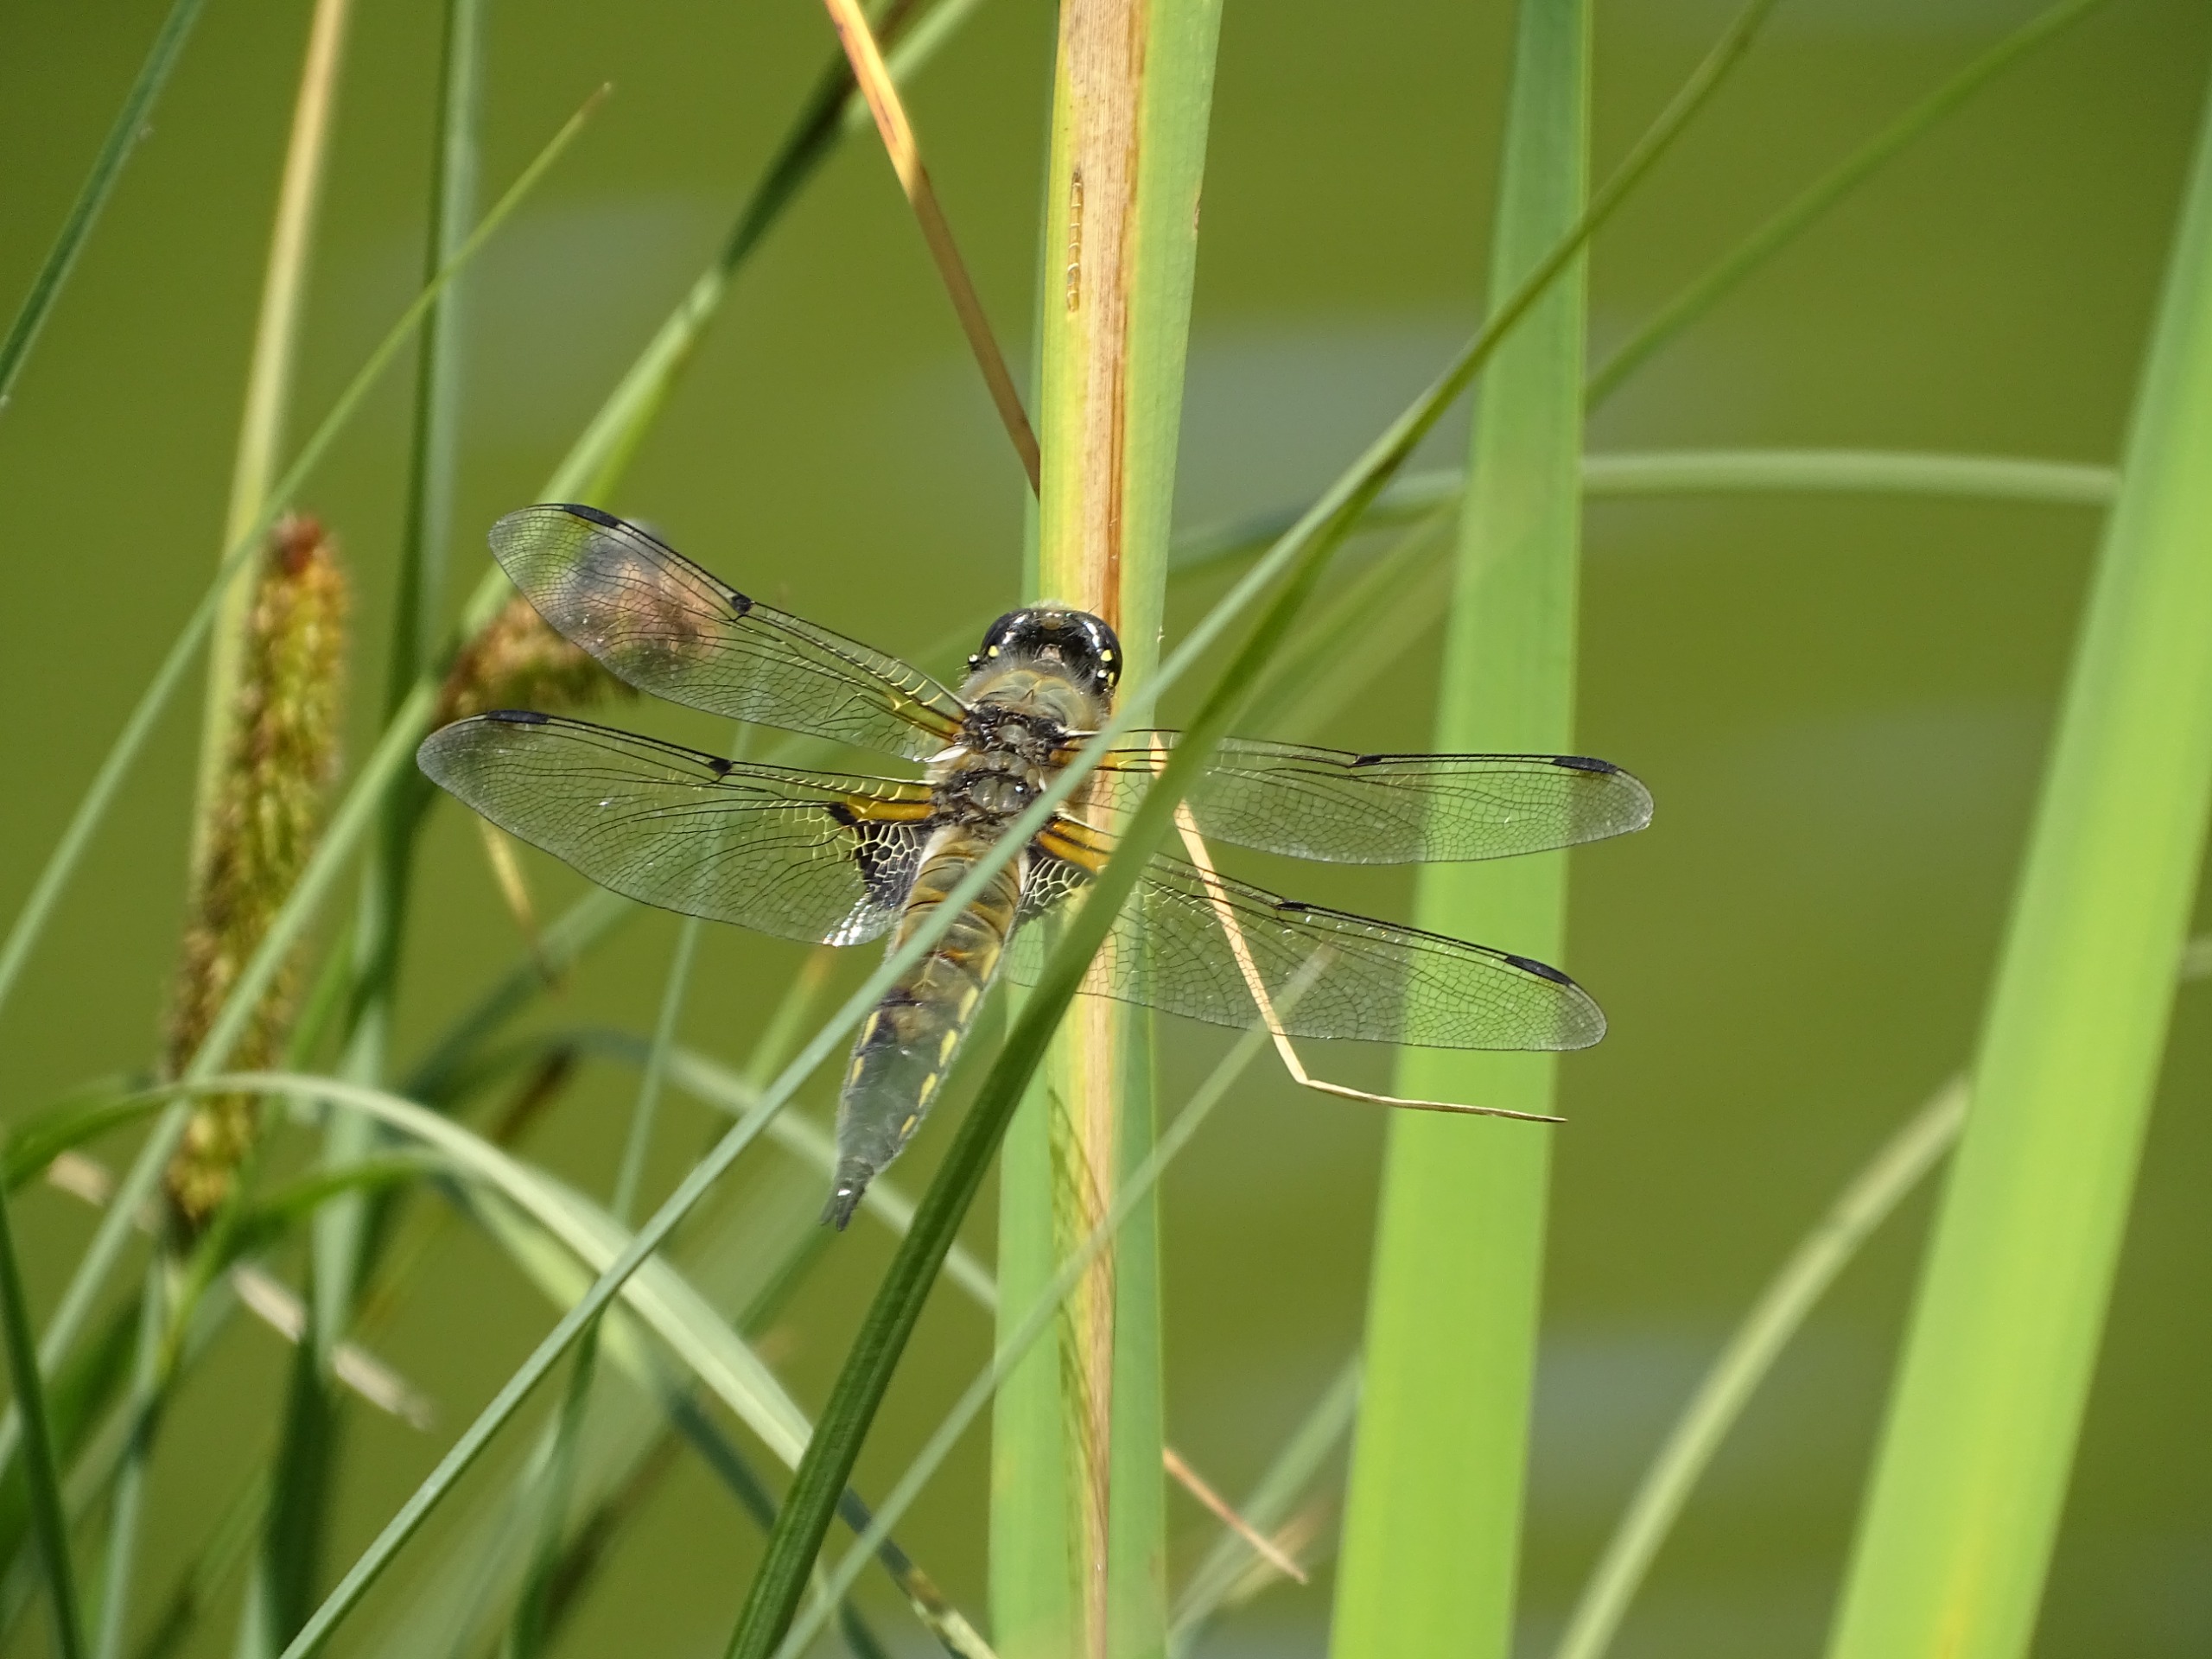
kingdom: Animalia
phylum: Arthropoda
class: Insecta
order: Odonata
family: Libellulidae
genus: Libellula
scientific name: Libellula quadrimaculata
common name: Fireplettet libel
